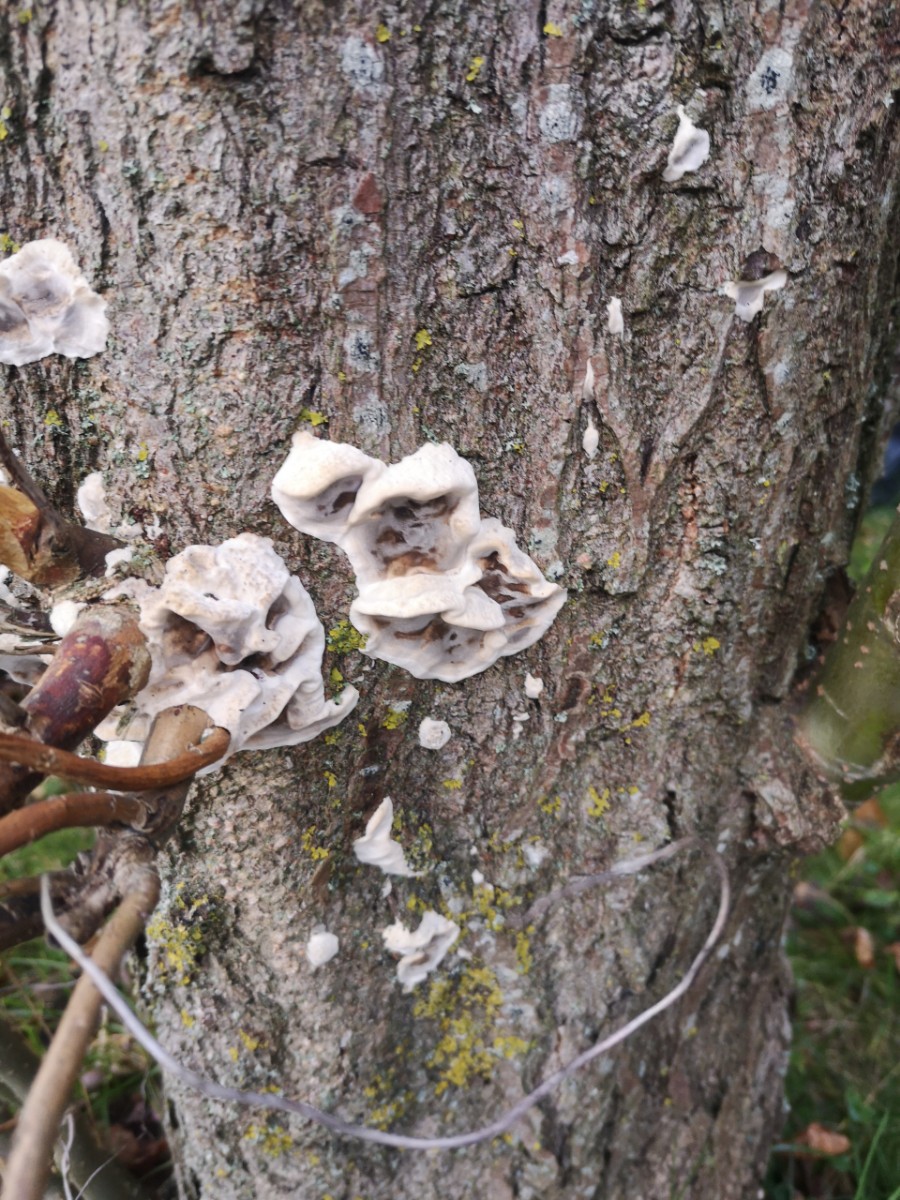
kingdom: Fungi
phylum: Basidiomycota
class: Agaricomycetes
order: Polyporales
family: Phanerochaetaceae
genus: Bjerkandera
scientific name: Bjerkandera adusta
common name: sveden sodporesvamp
